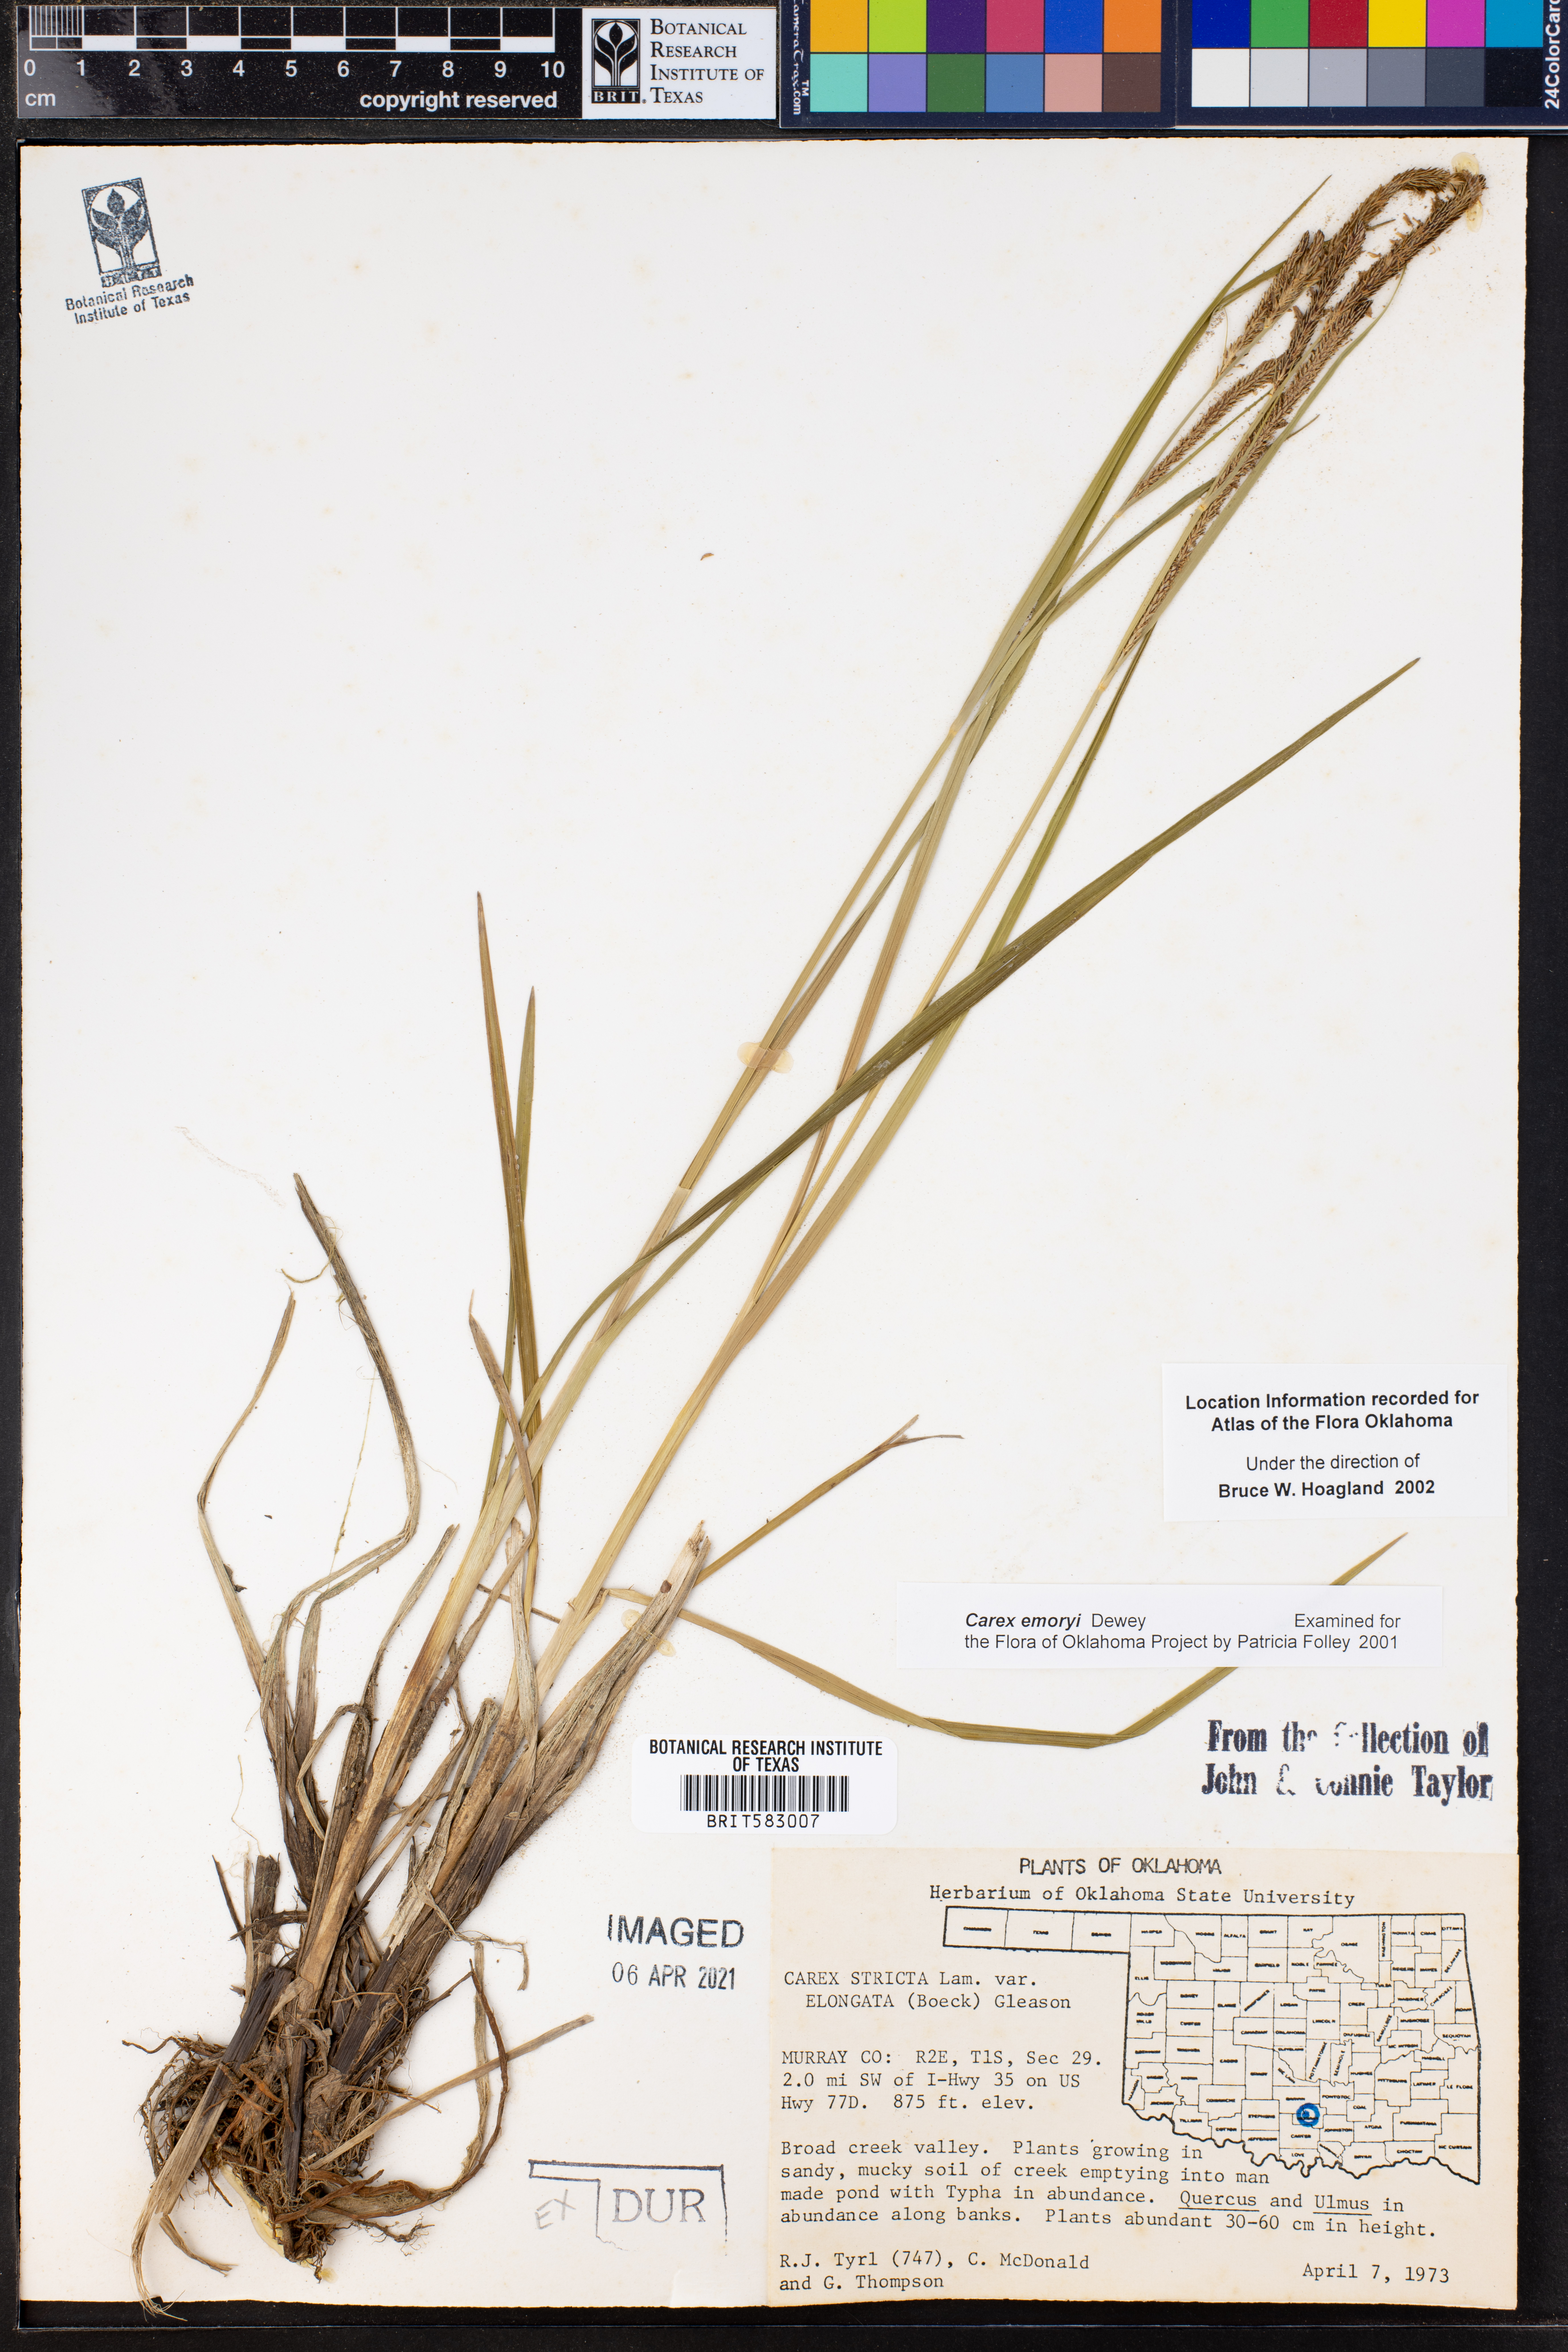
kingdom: Plantae
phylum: Tracheophyta
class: Liliopsida
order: Poales
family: Cyperaceae
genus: Carex
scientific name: Carex emoryi
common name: Emory's sedge
